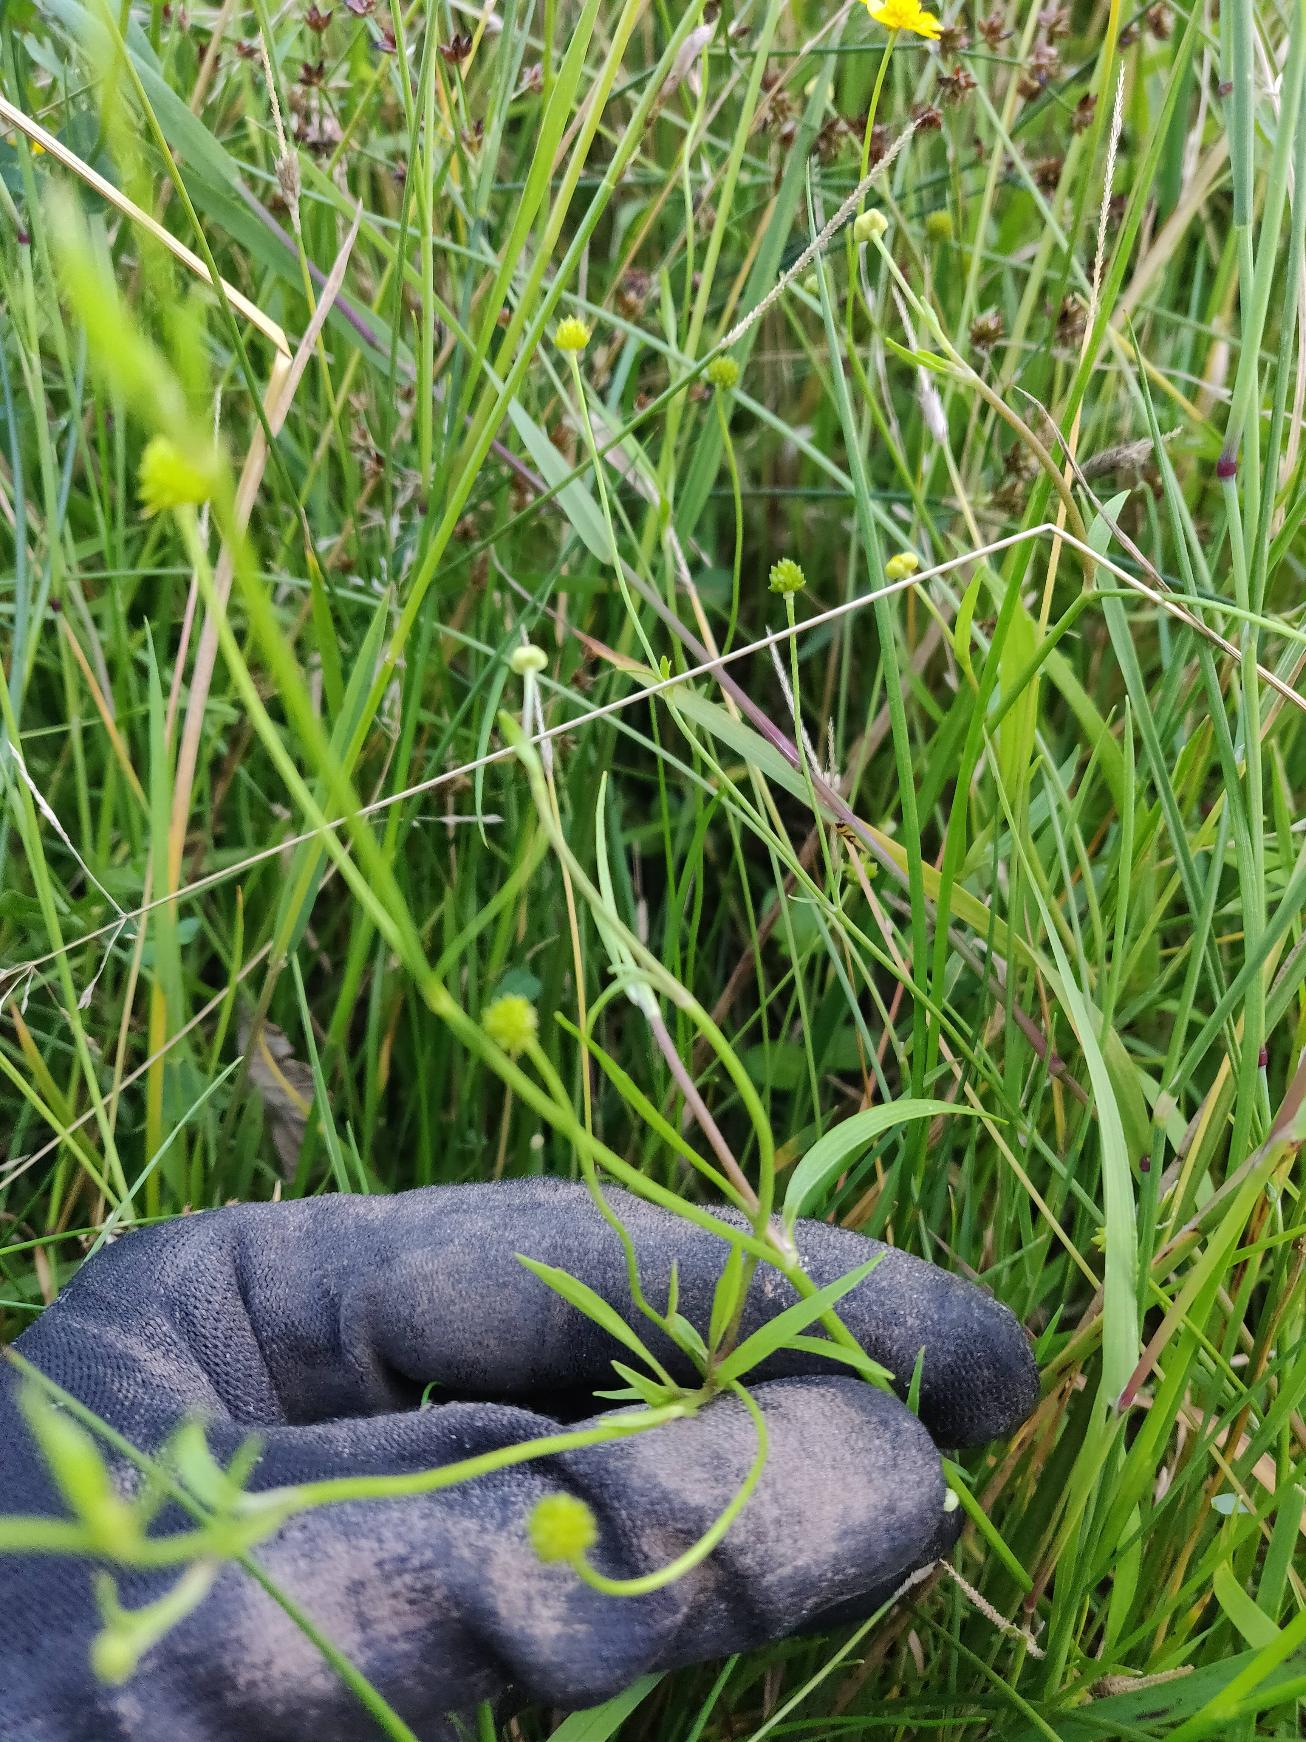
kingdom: Plantae
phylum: Tracheophyta
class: Magnoliopsida
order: Ranunculales
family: Ranunculaceae
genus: Ranunculus
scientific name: Ranunculus flammula
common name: Kær-ranunkel
